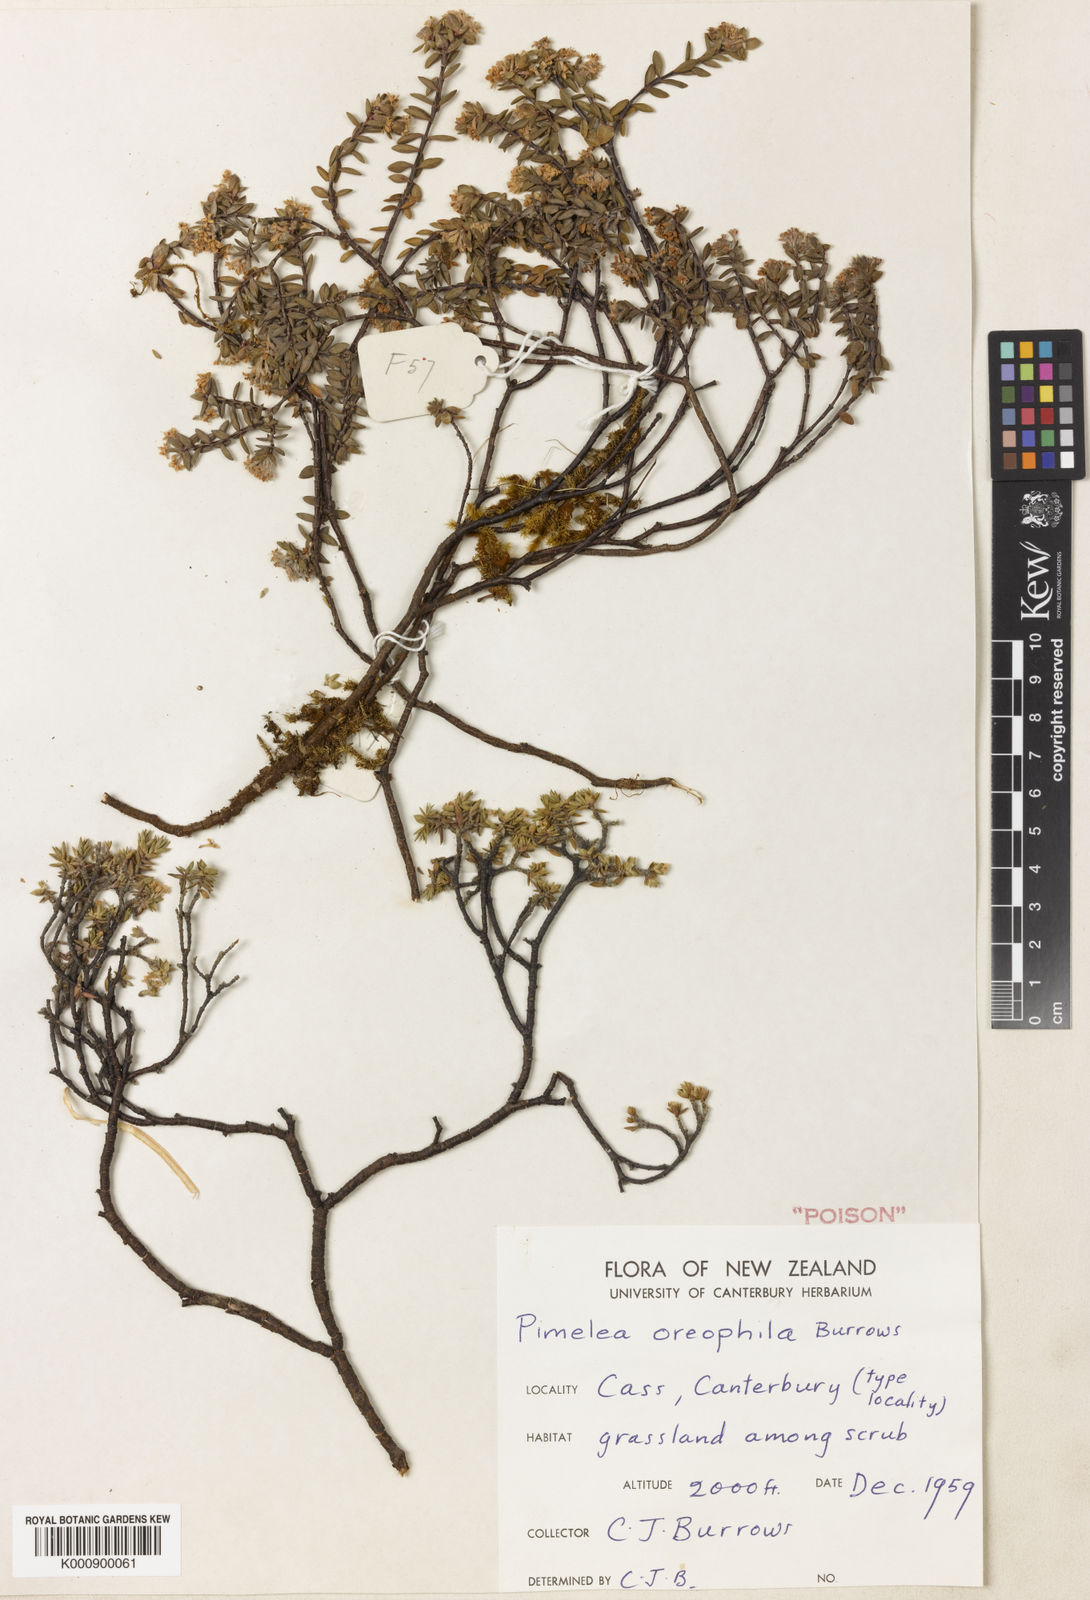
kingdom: Plantae
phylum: Tracheophyta
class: Magnoliopsida
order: Malvales
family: Thymelaeaceae
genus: Pimelea
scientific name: Pimelea oreophila
